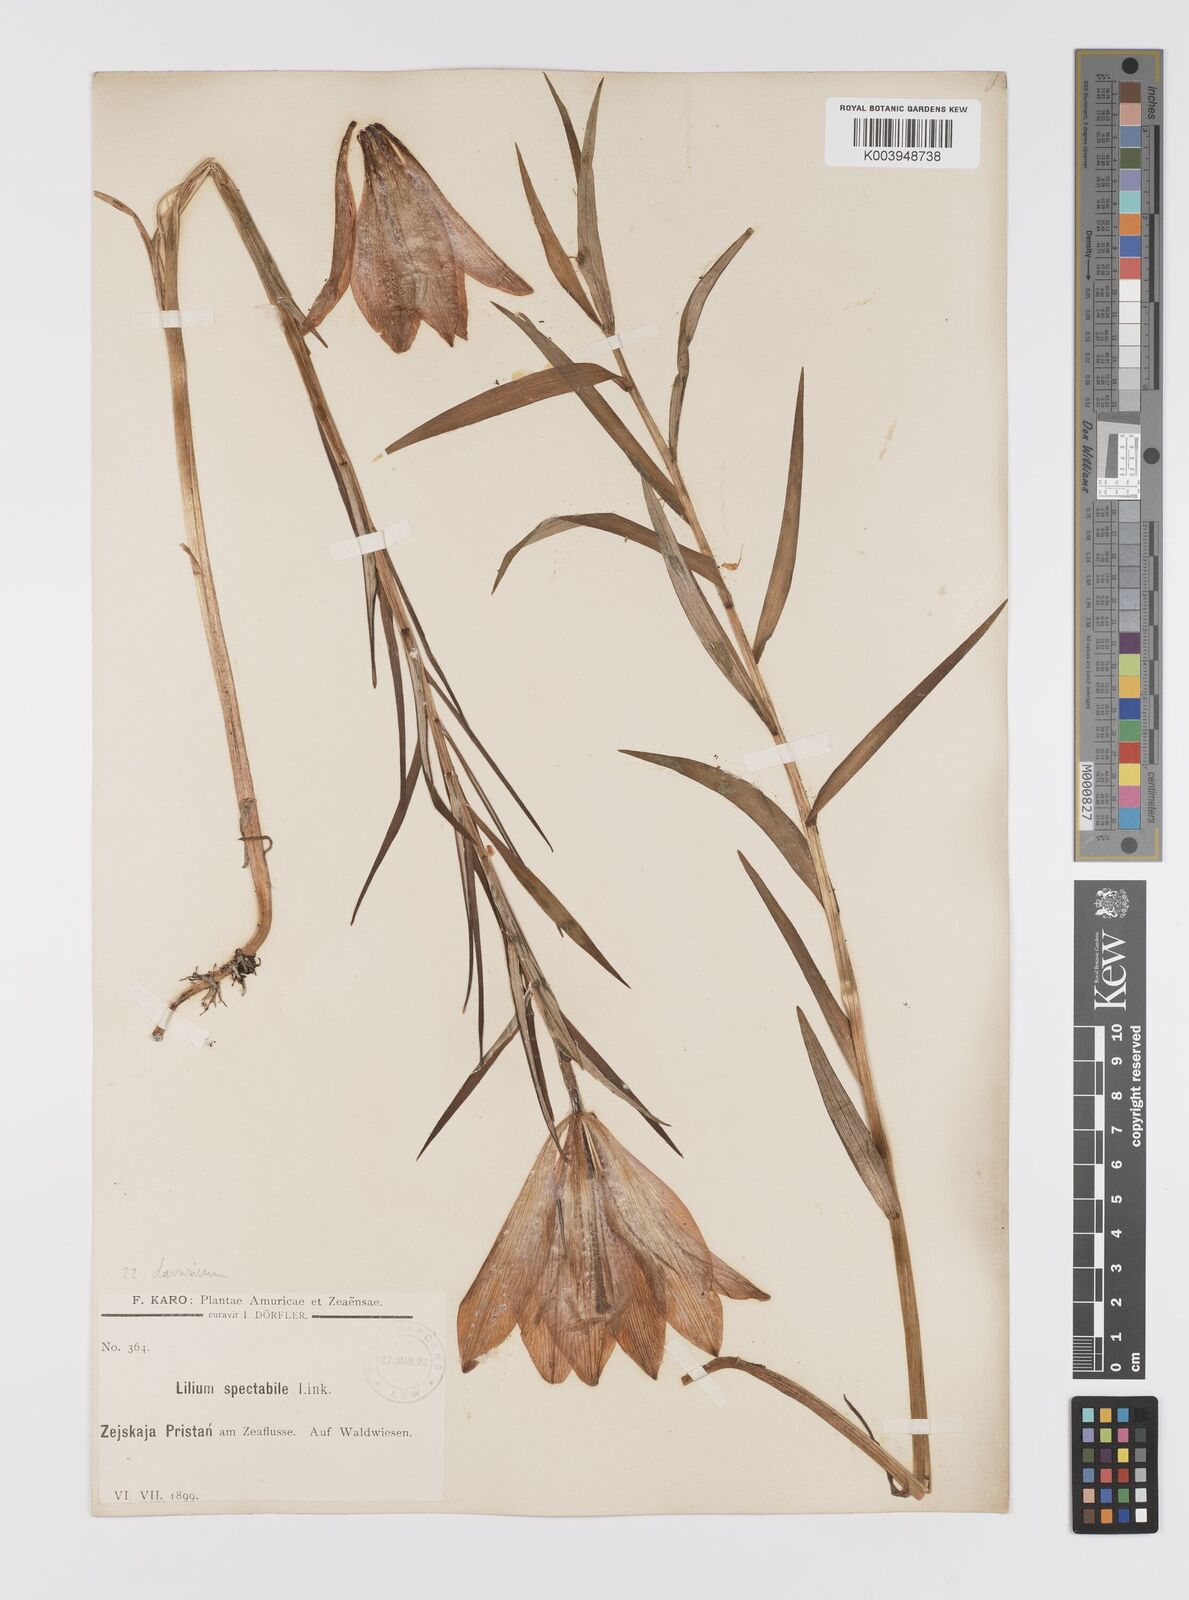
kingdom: Plantae
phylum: Tracheophyta
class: Liliopsida
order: Liliales
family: Liliaceae
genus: Lilium
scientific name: Lilium pensylvanicum
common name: Candlestick lily
